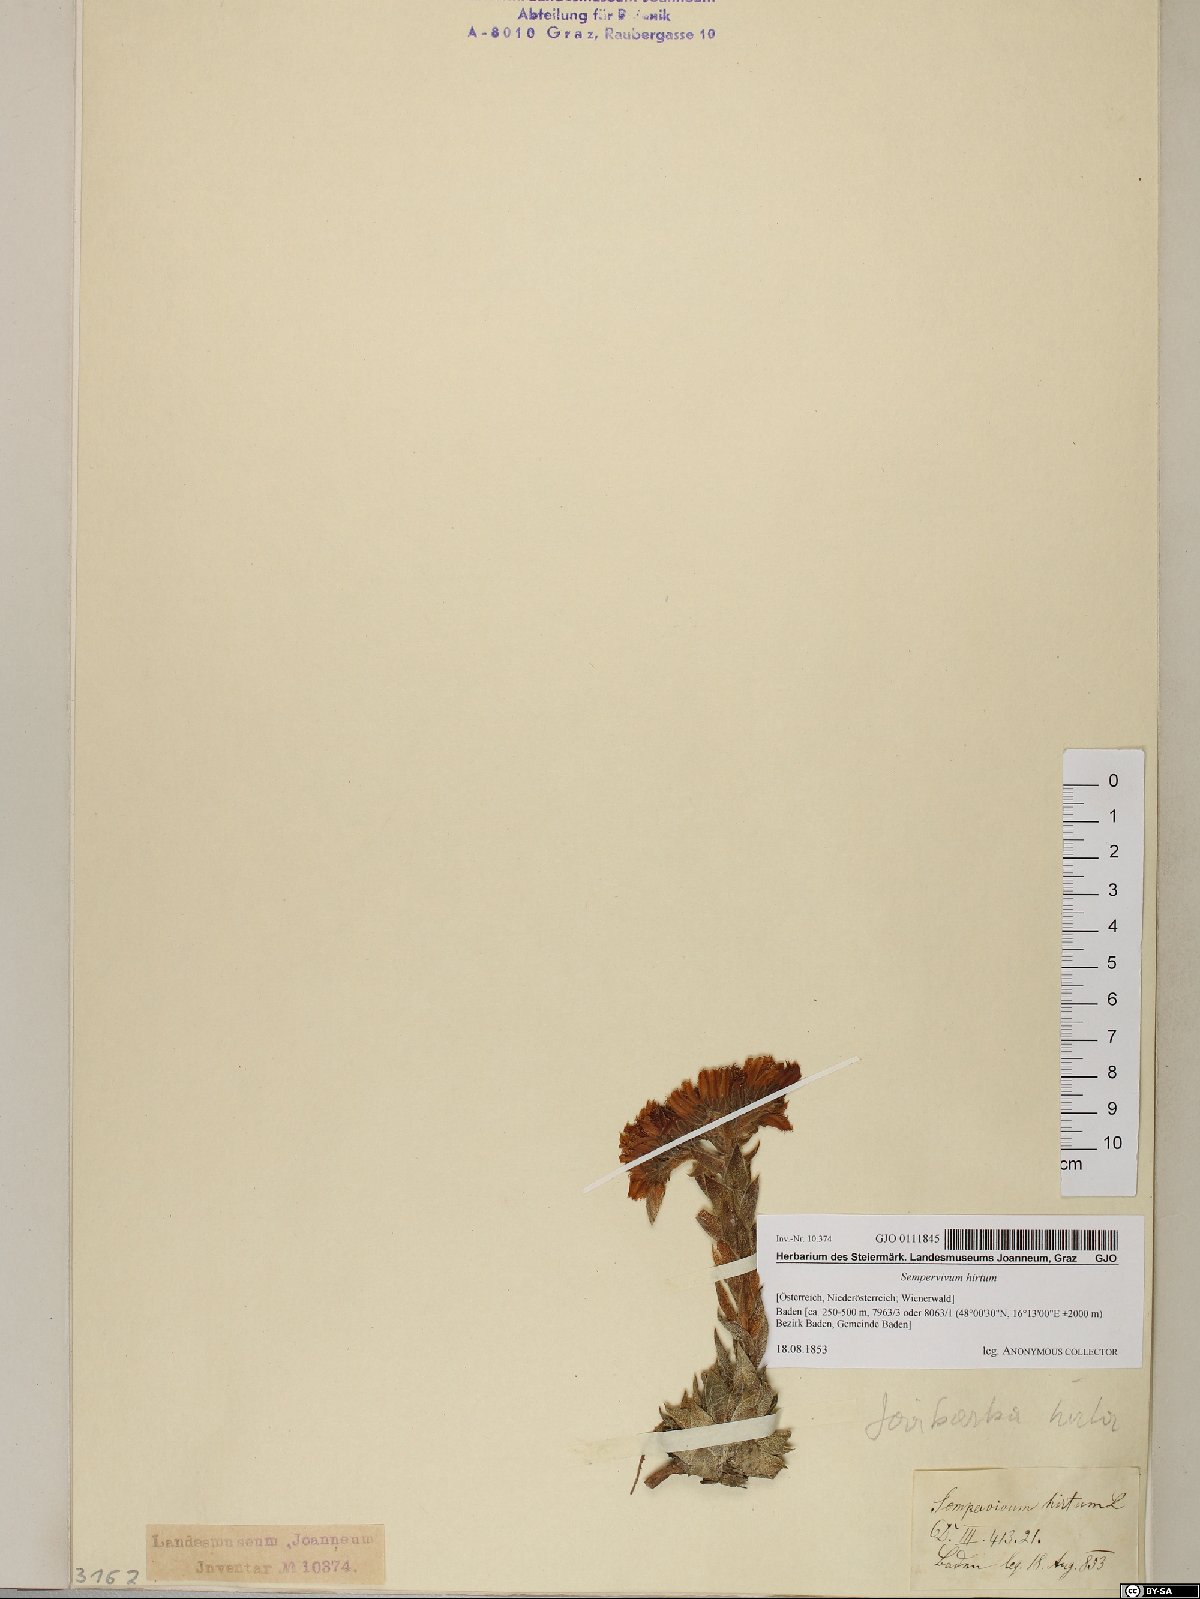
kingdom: Plantae
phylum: Tracheophyta
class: Magnoliopsida
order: Saxifragales
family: Crassulaceae
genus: Sempervivum
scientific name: Sempervivum globiferum
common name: Rolling hen-and-chicks
